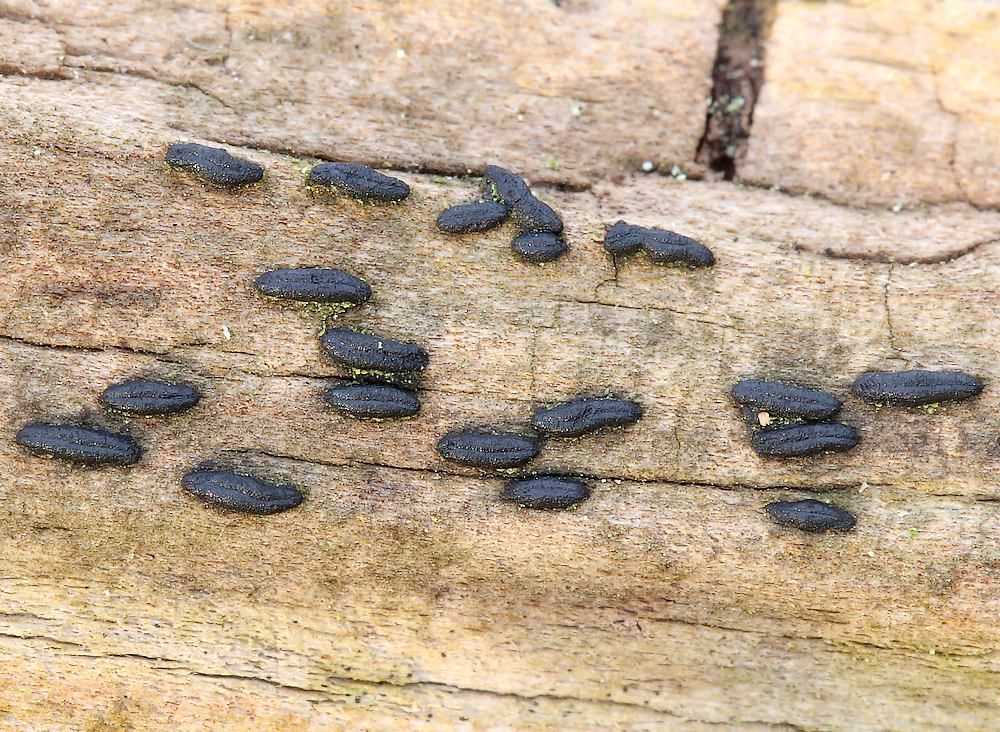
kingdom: Fungi
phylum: Ascomycota
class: Dothideomycetes
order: Hysteriales
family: Hysteriaceae
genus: Hysterium
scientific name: Hysterium acuminatum
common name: almindelig kulmund
